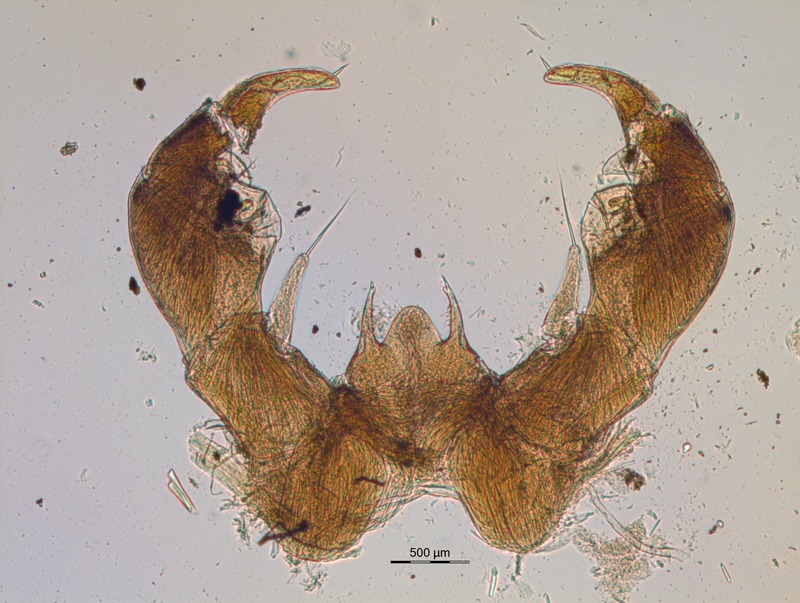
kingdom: Animalia
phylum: Arthropoda
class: Diplopoda
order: Glomerida
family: Glomeridae
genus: Glomeris
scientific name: Glomeris klugii
